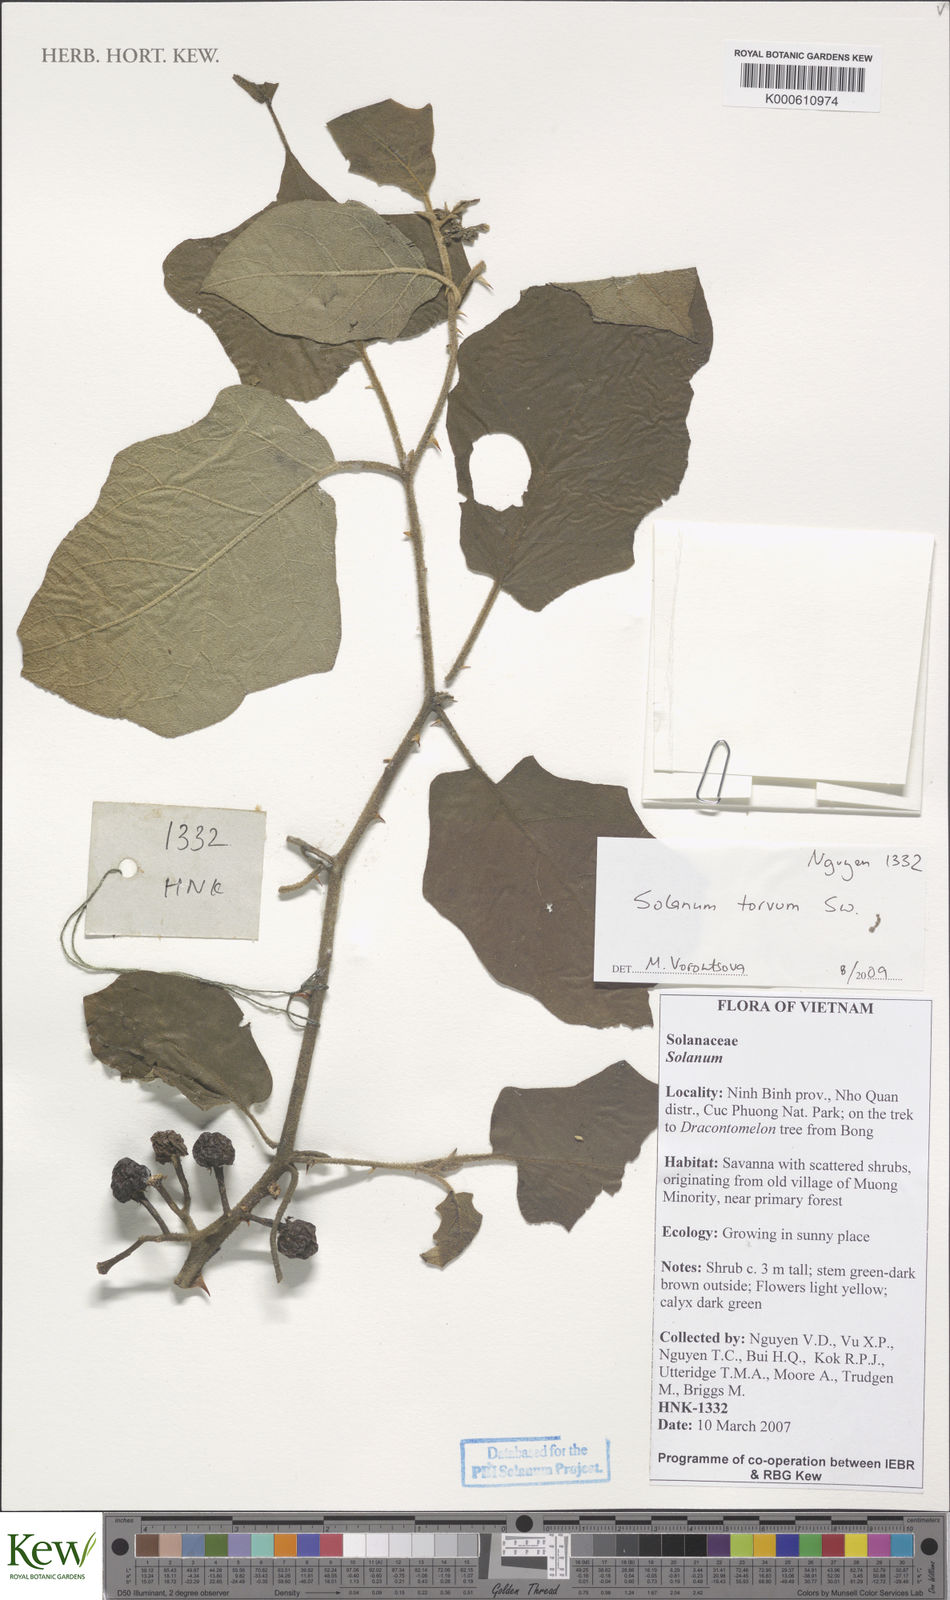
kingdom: Plantae
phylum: Tracheophyta
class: Magnoliopsida
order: Solanales
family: Solanaceae
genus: Solanum
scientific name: Solanum torvum
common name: Turkey berry
